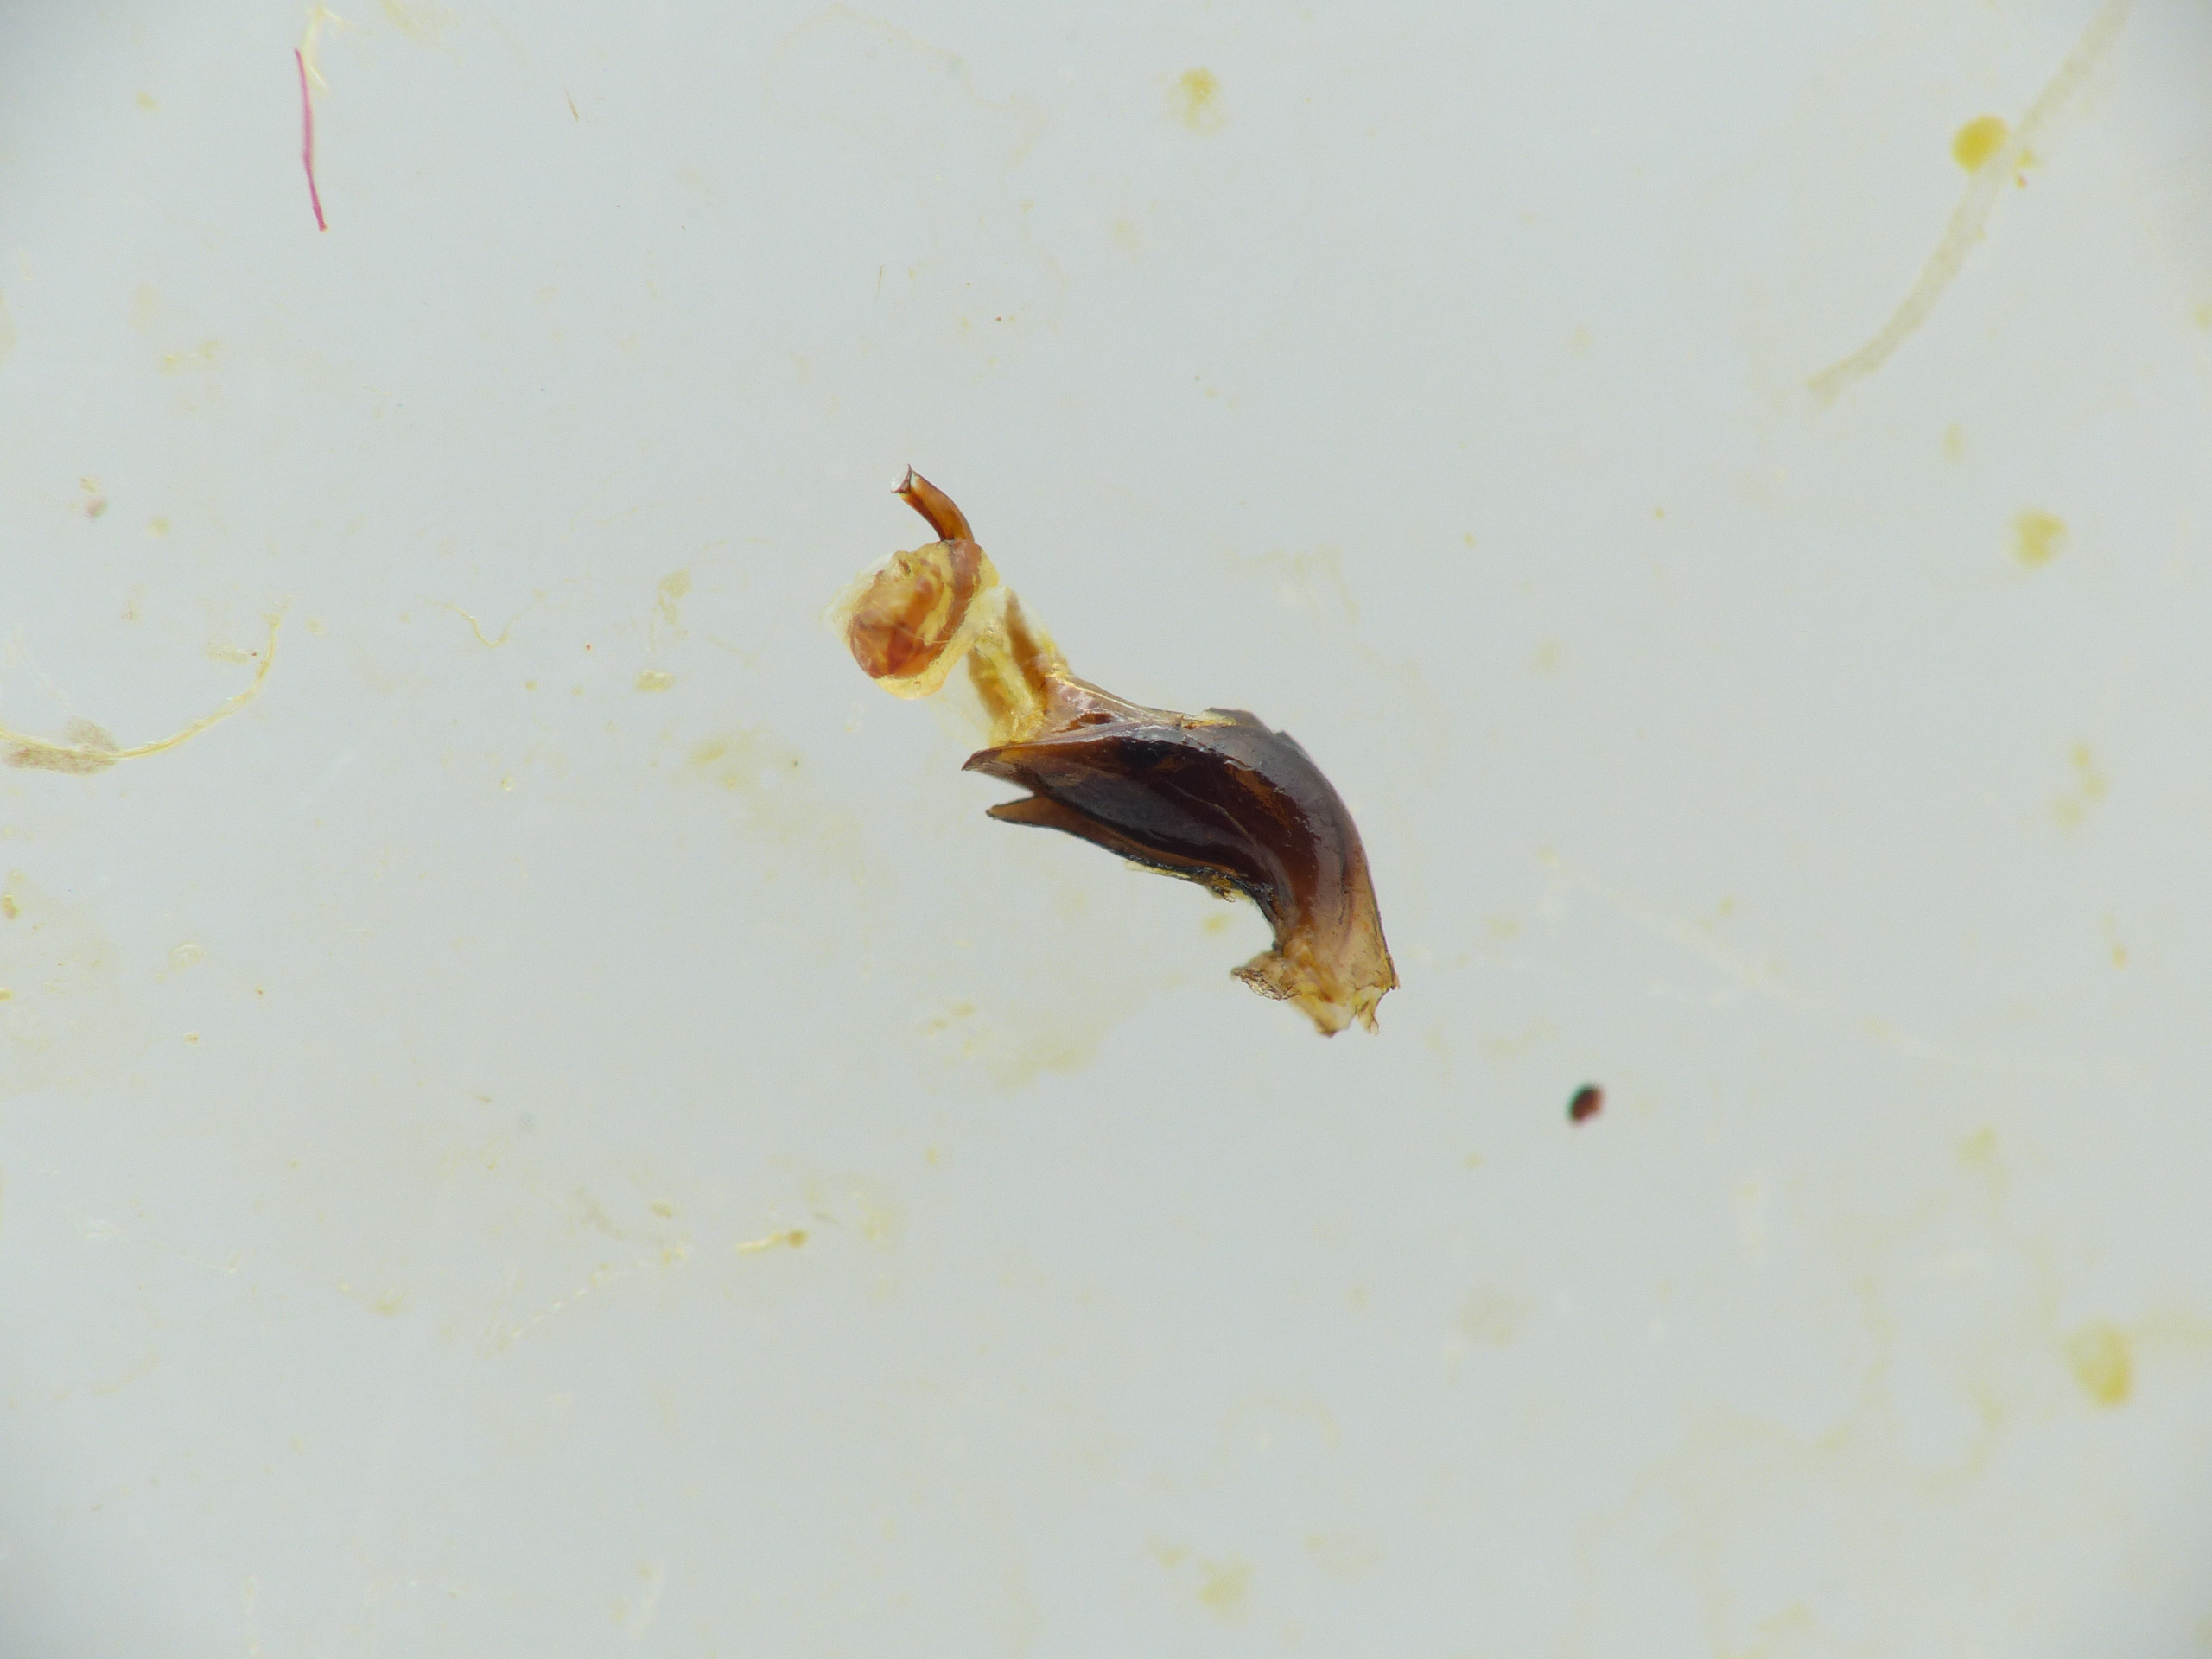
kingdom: Animalia
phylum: Arthropoda
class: Insecta
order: Coleoptera
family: Chrysomelidae
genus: Oulema
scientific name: Oulema melanopus
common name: Kornbladbille
